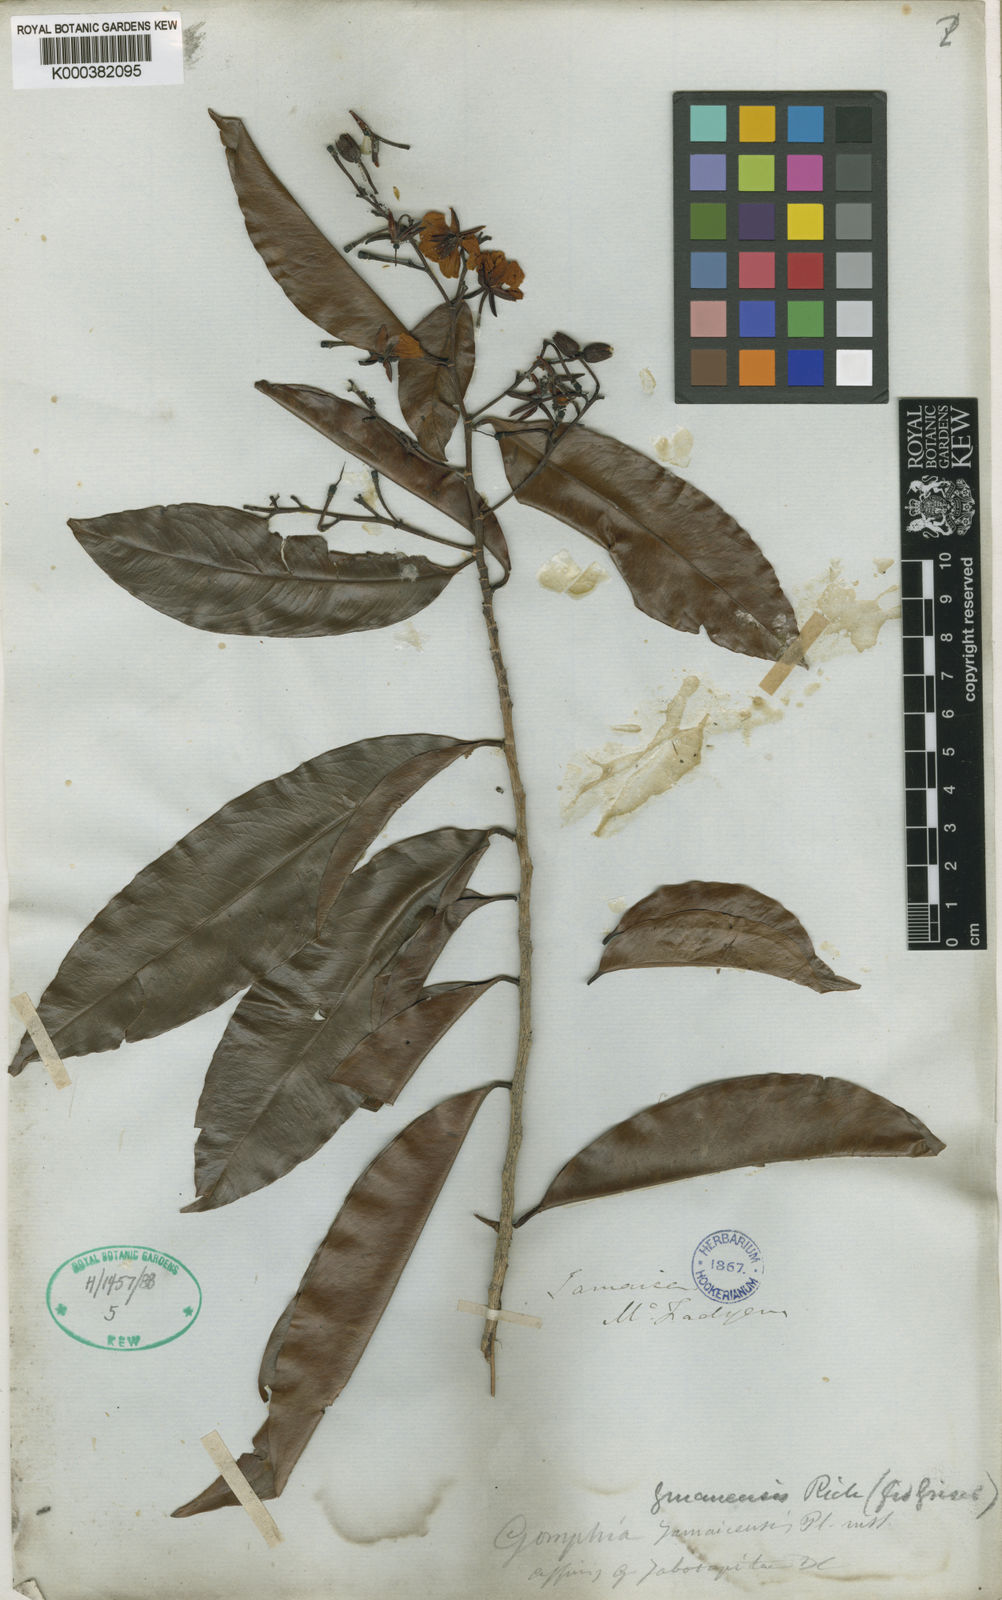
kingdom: Plantae
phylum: Tracheophyta
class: Magnoliopsida
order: Malpighiales
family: Ochnaceae
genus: Ouratea
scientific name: Ouratea jamaicensis
